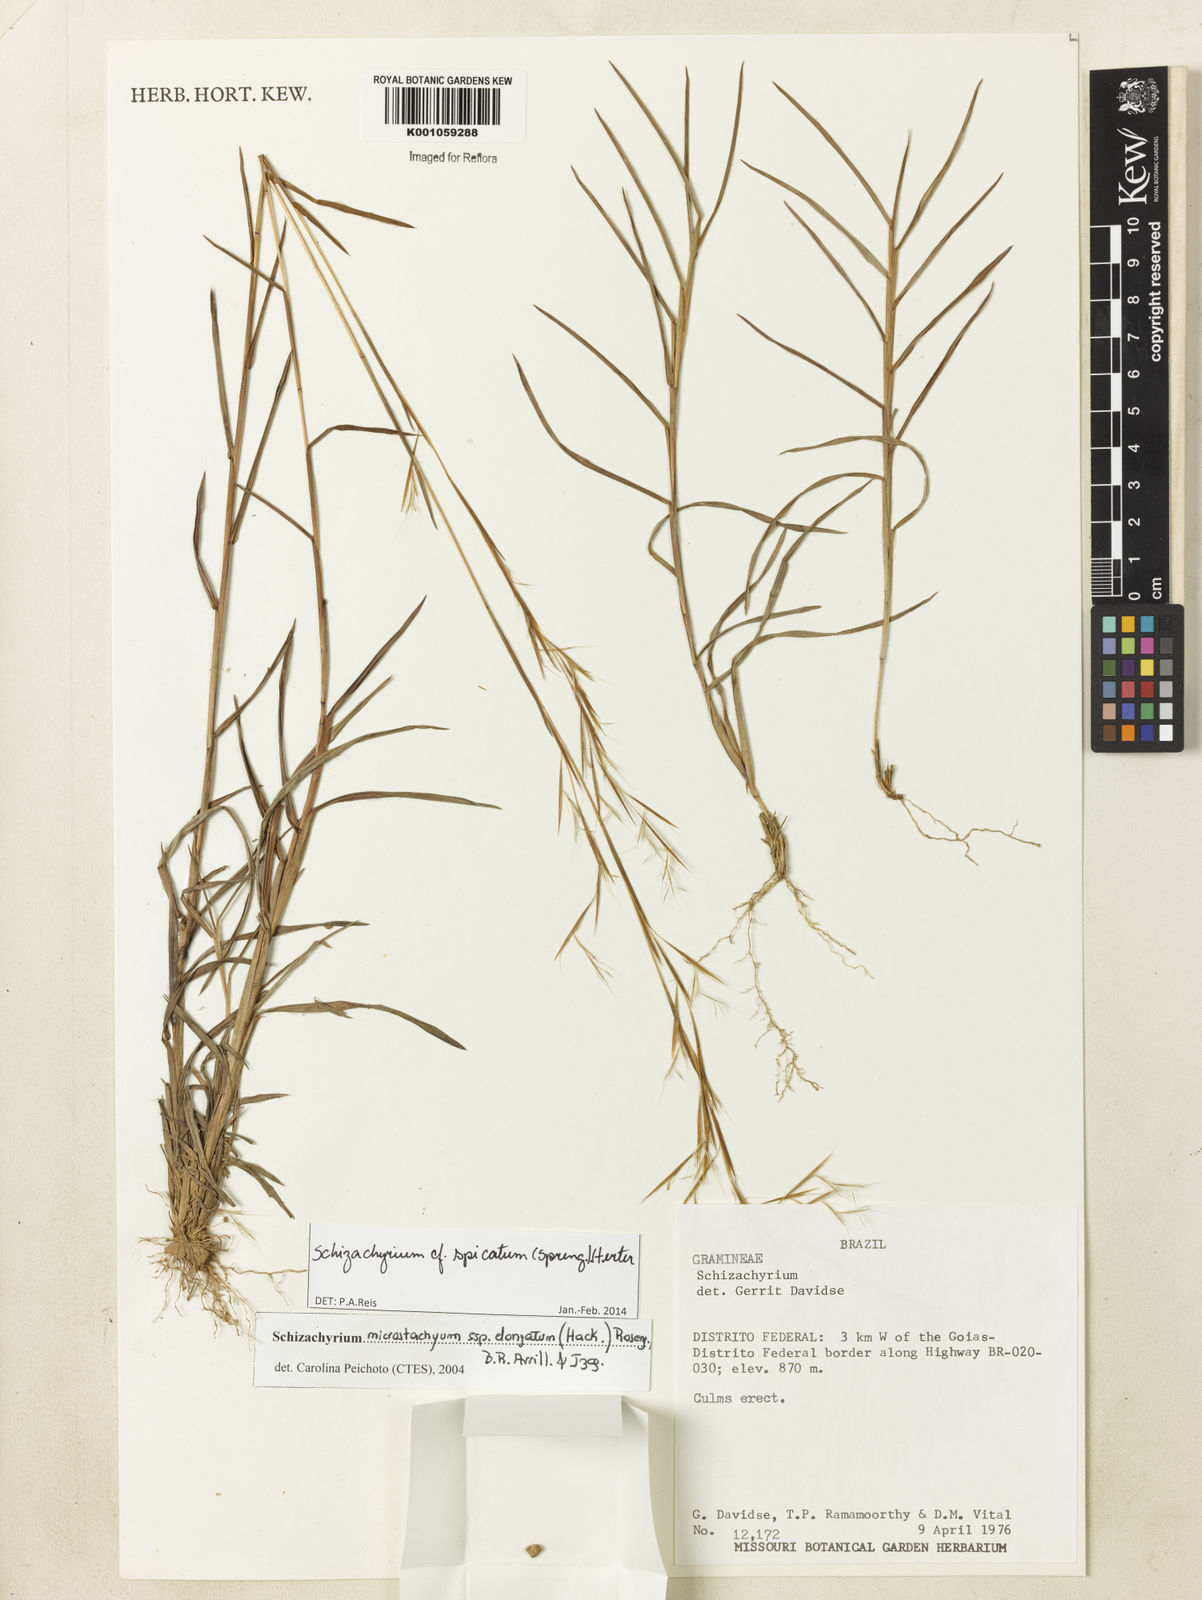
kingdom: Plantae
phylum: Tracheophyta
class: Liliopsida
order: Poales
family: Poaceae
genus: Schizachyrium
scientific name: Schizachyrium spicatum
